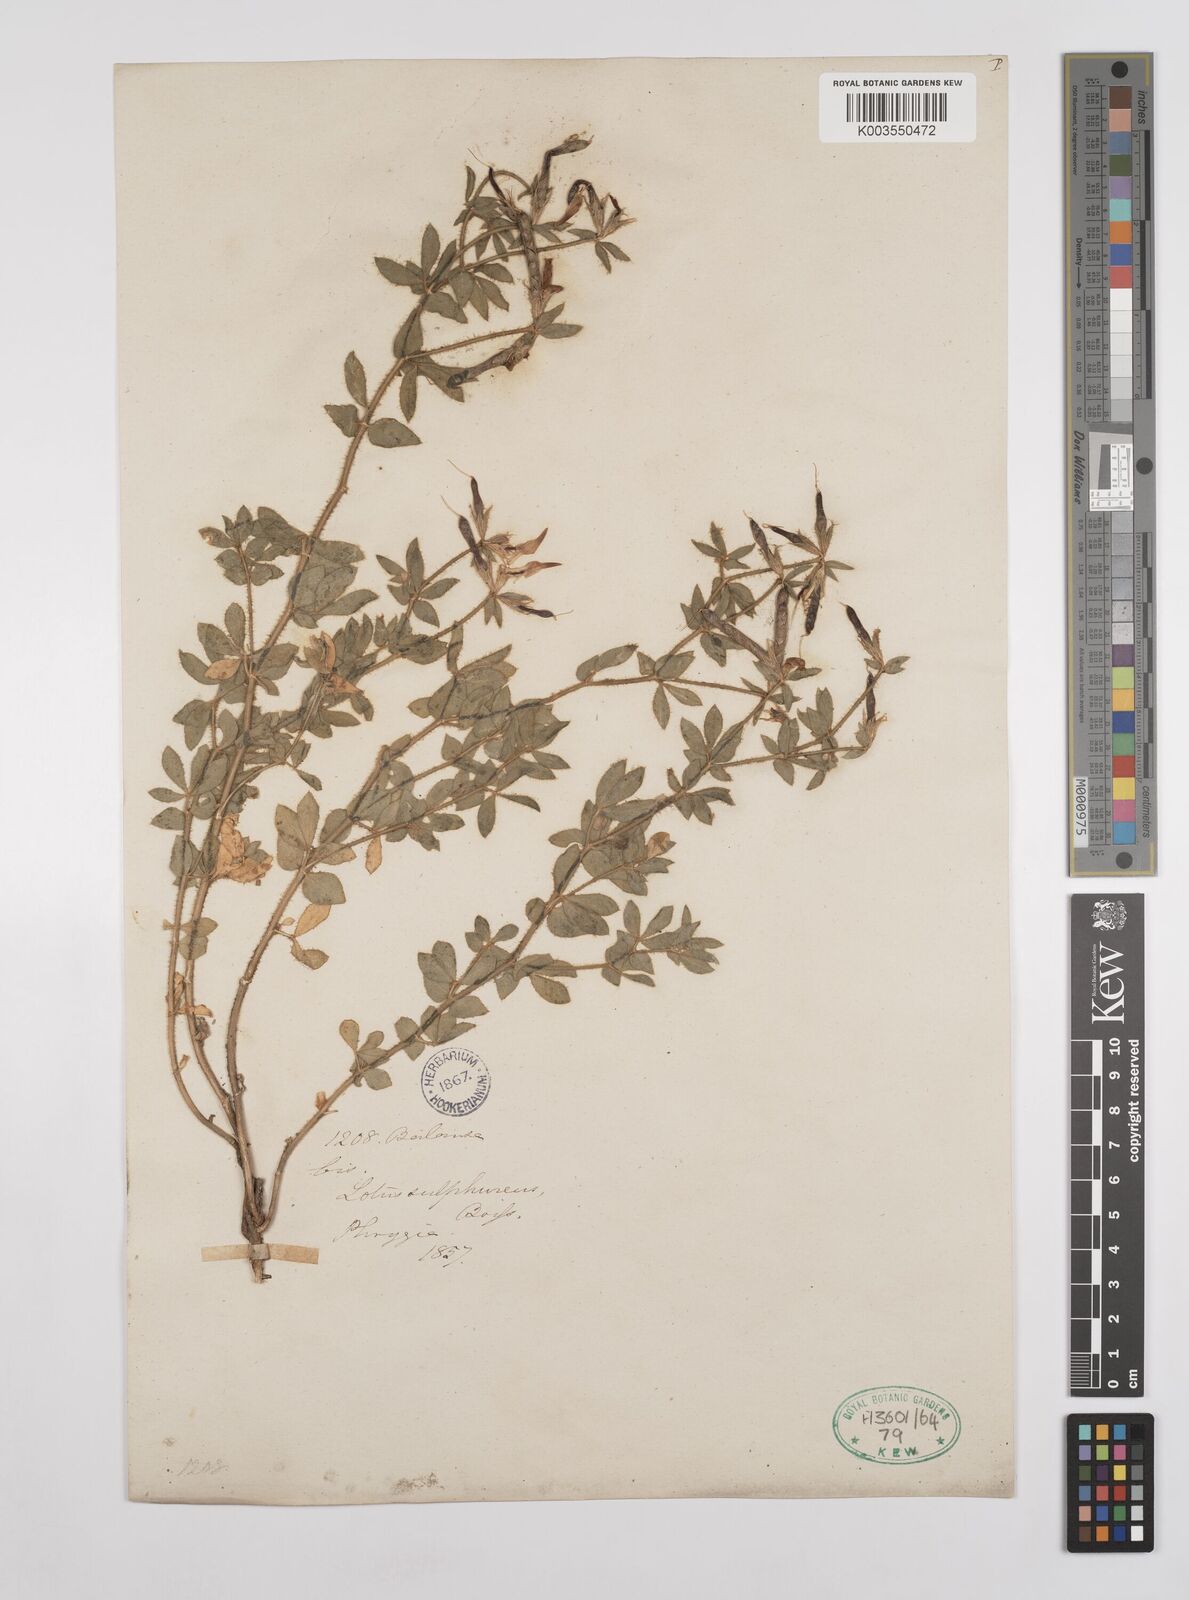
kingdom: Plantae
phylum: Tracheophyta
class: Magnoliopsida
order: Fabales
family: Fabaceae
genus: Lotus
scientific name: Lotus aegaeus
